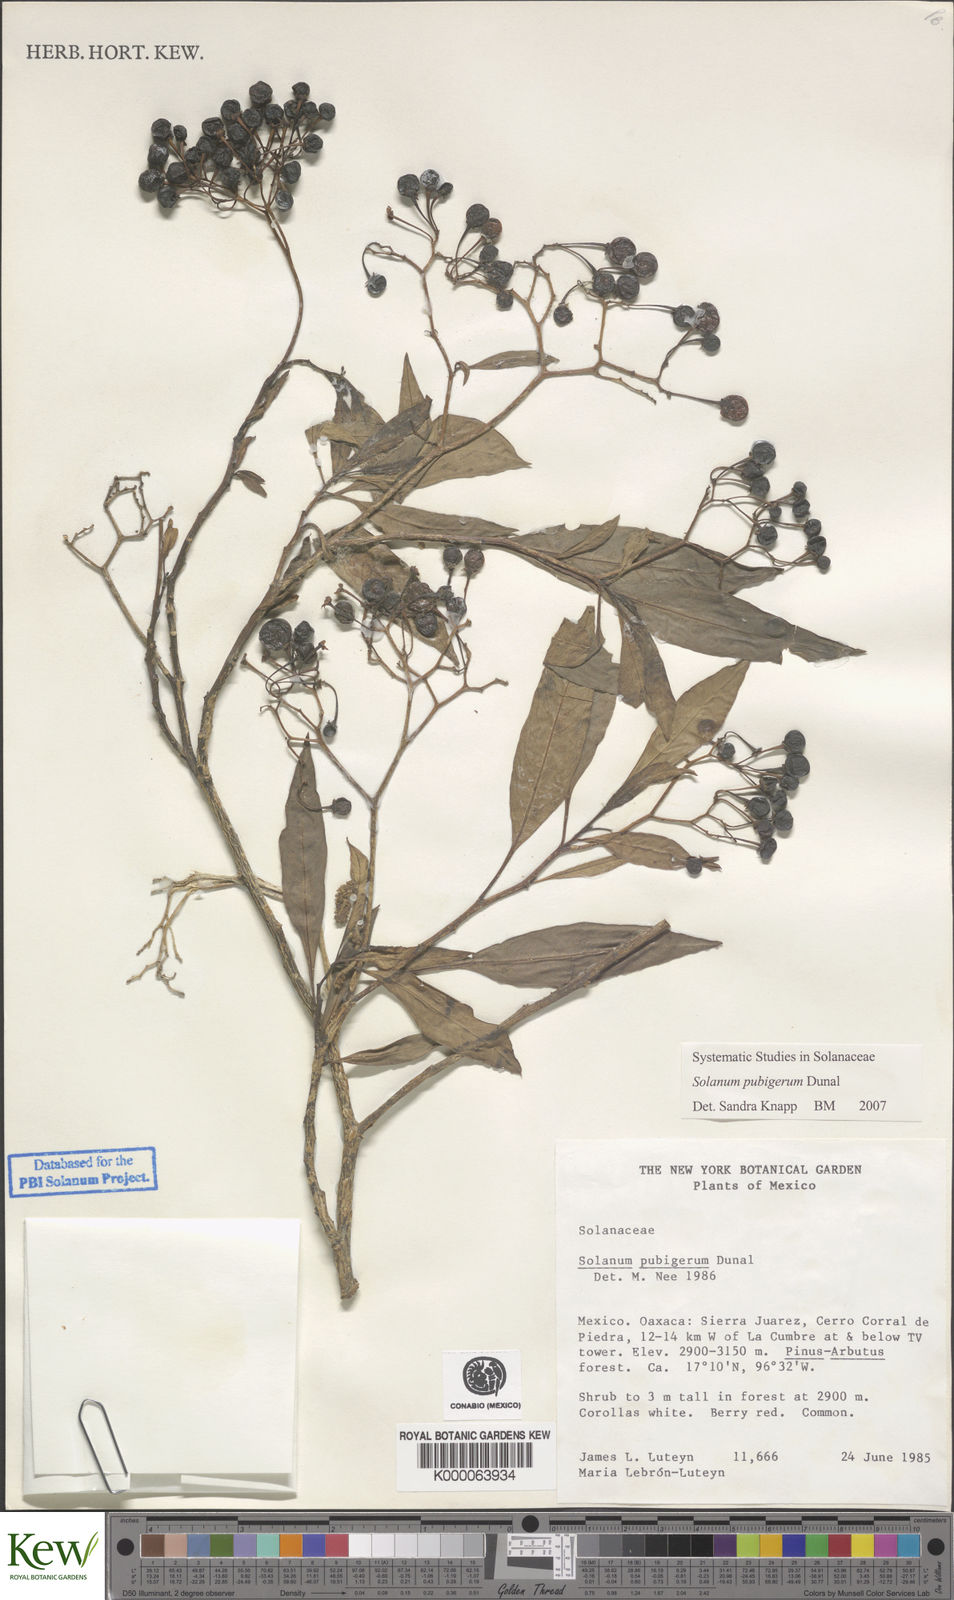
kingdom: Plantae
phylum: Tracheophyta
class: Magnoliopsida
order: Solanales
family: Solanaceae
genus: Solanum
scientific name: Solanum pubigerum
